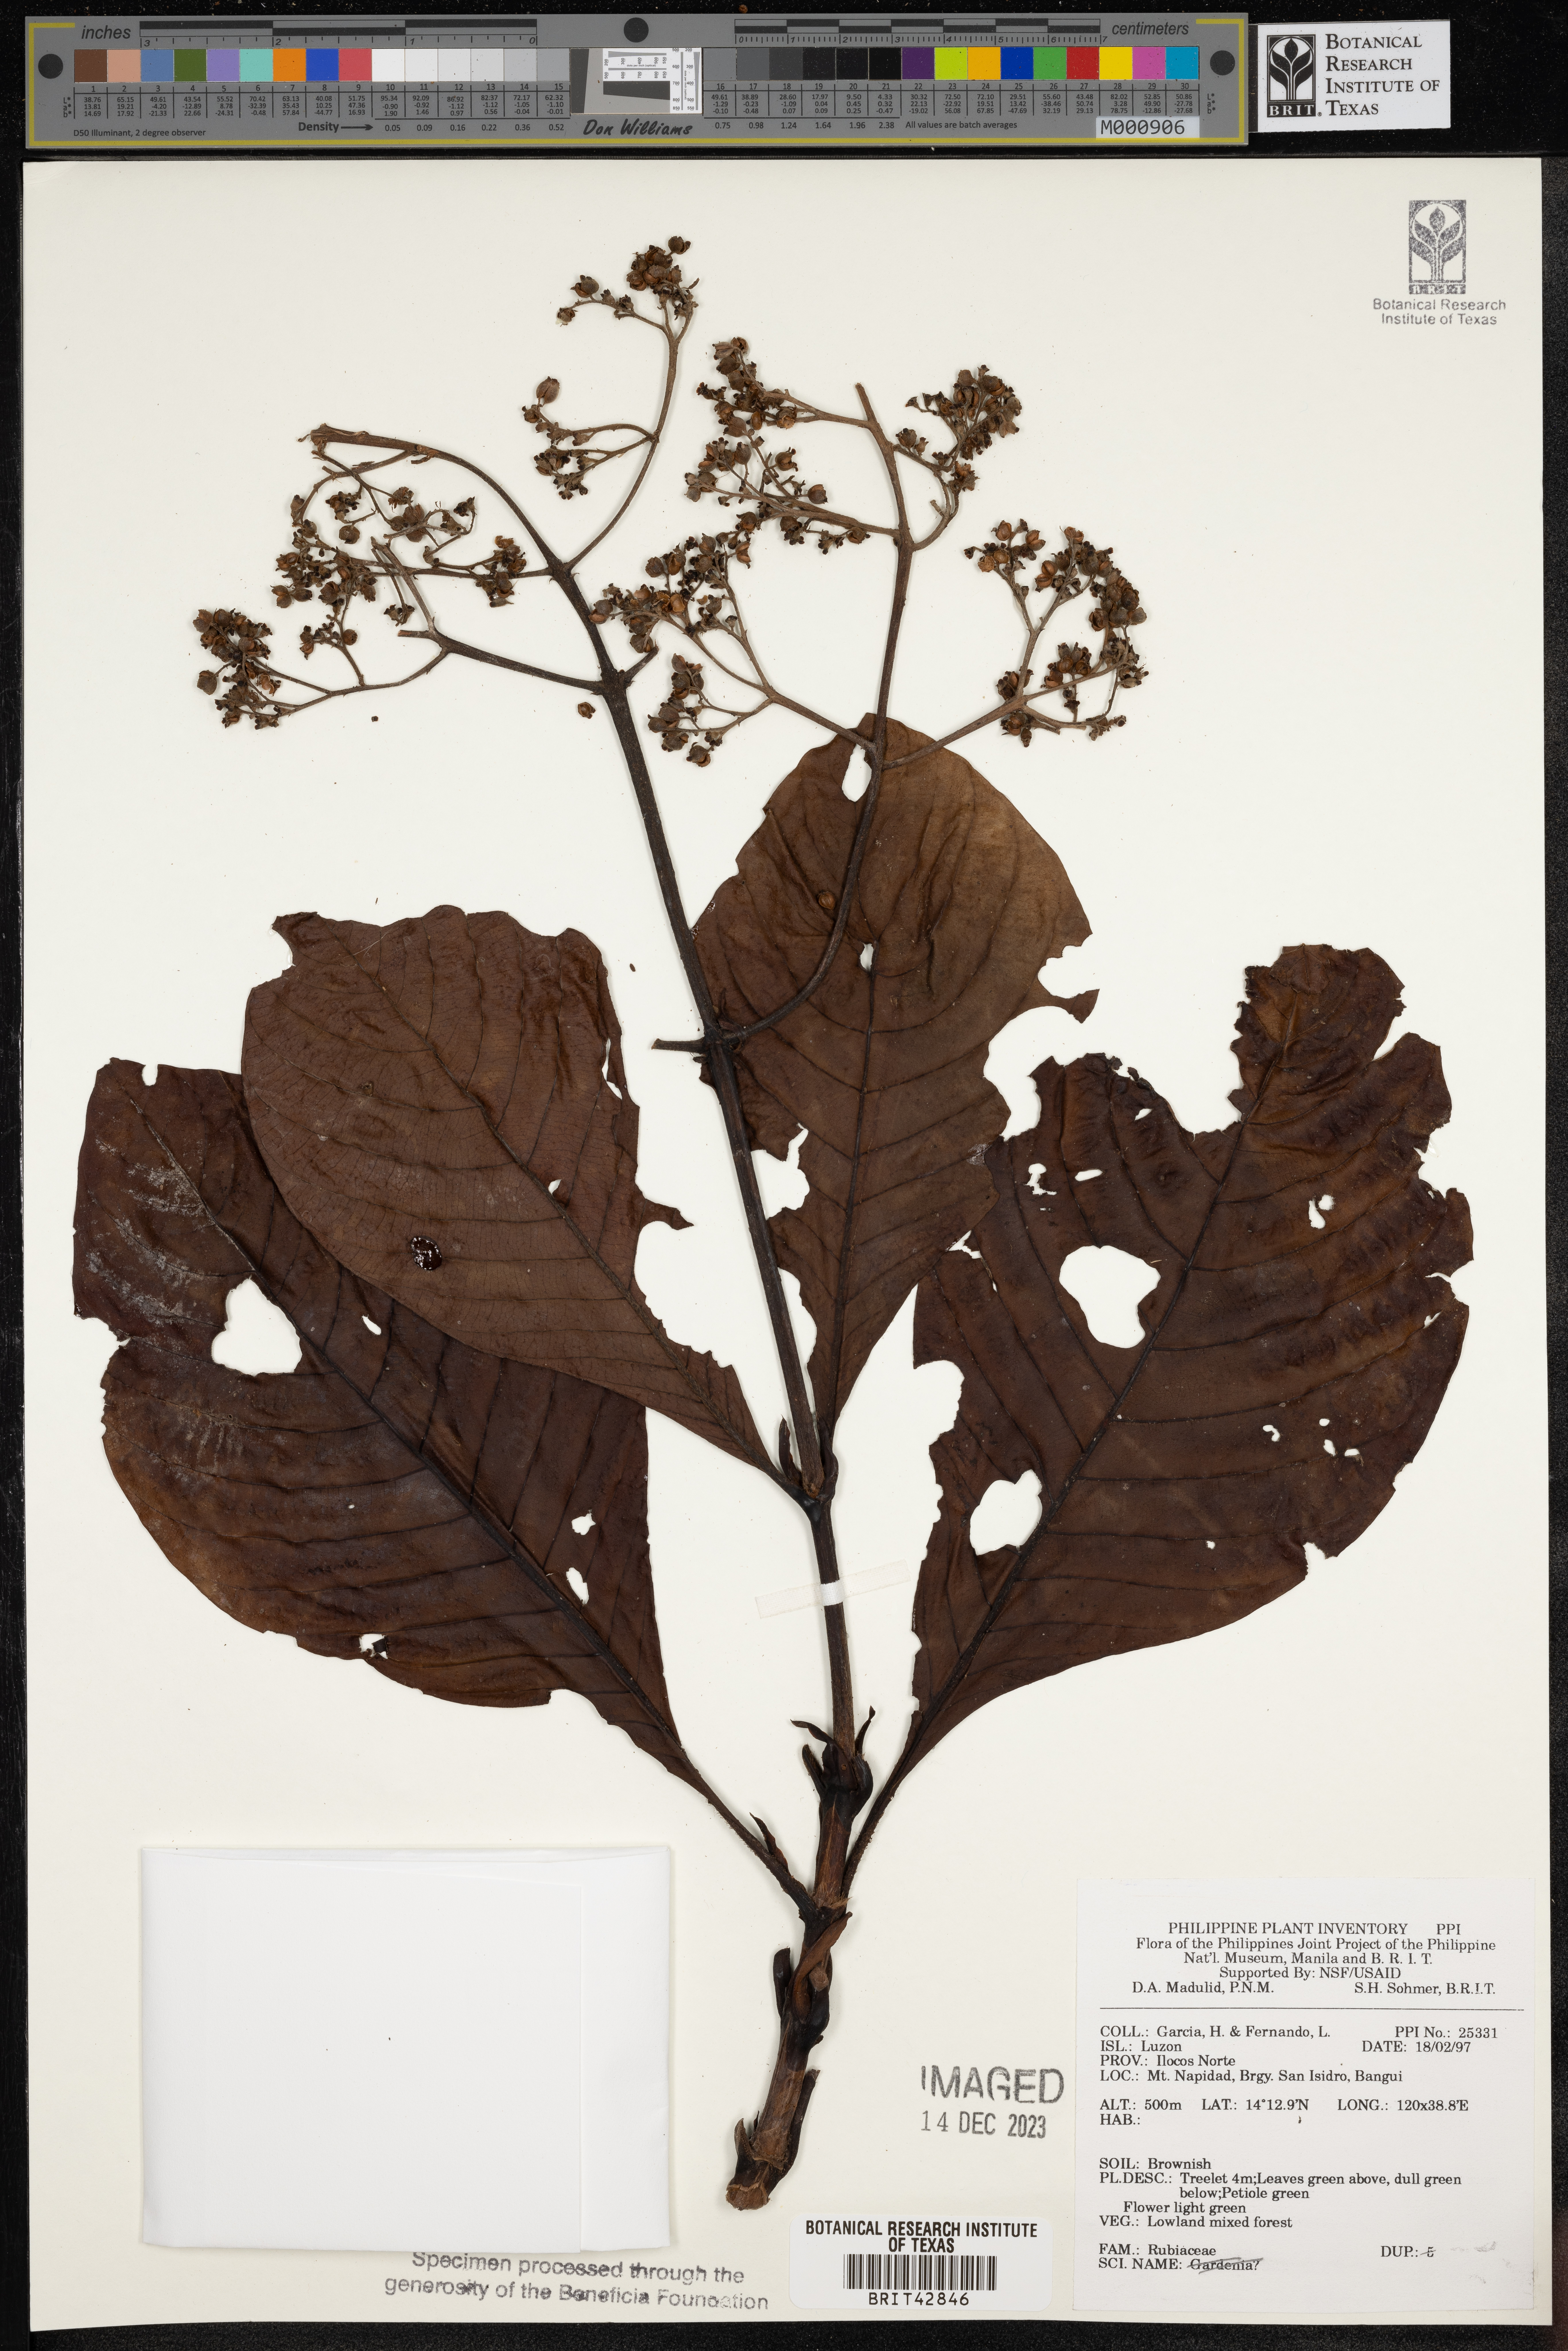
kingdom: Plantae
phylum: Tracheophyta
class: Magnoliopsida
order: Gentianales
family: Rubiaceae
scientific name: Rubiaceae
